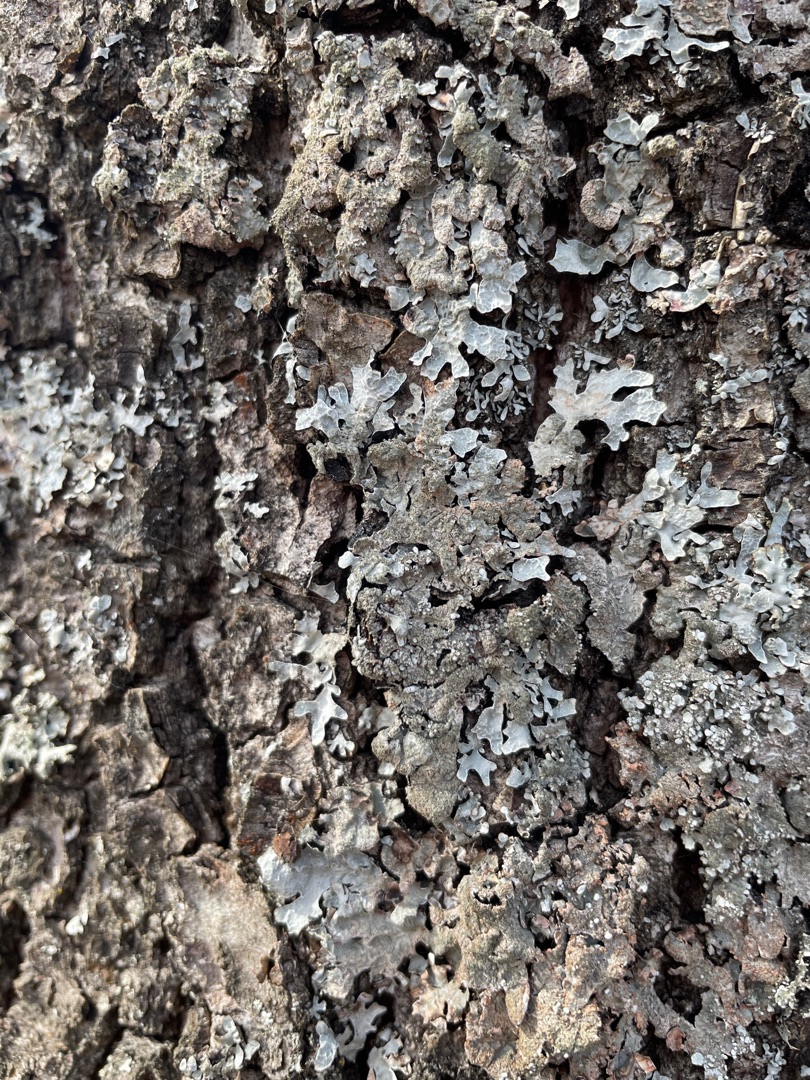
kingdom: Fungi
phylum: Ascomycota
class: Lecanoromycetes
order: Lecanorales
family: Parmeliaceae
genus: Parmelia
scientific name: Parmelia sulcata
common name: Rynket skållav
